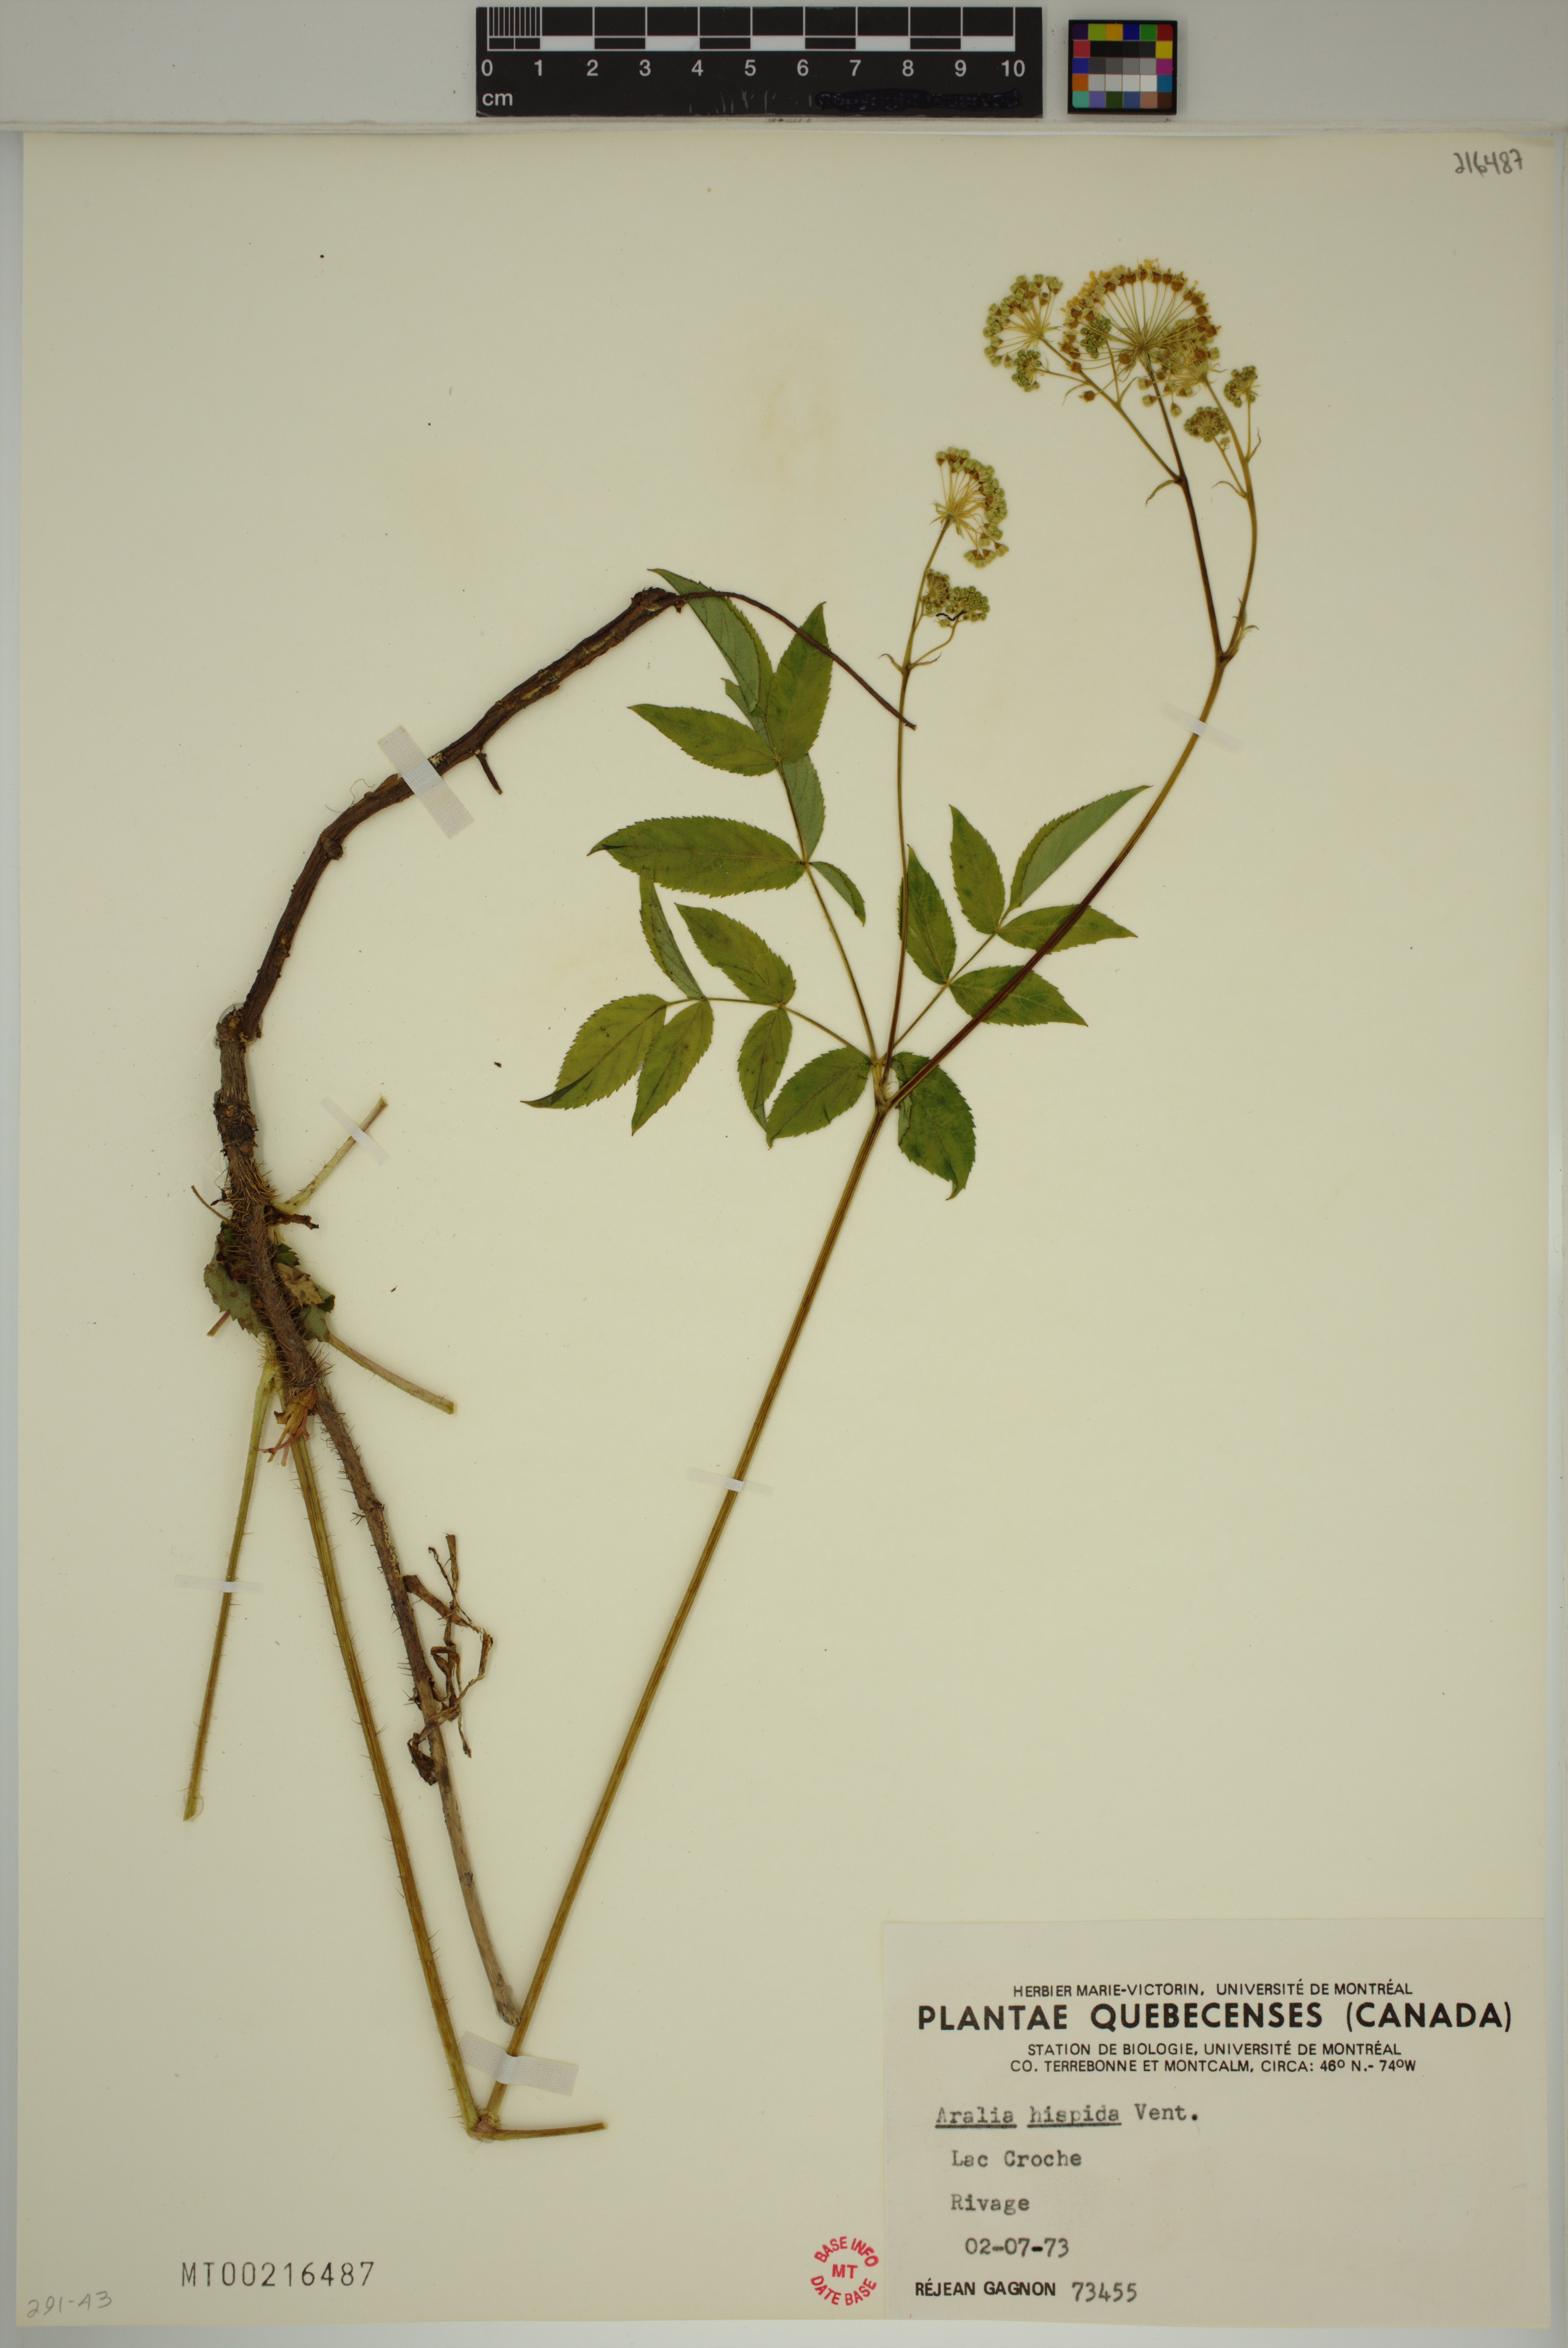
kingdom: Plantae
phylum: Tracheophyta
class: Magnoliopsida
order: Apiales
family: Araliaceae
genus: Aralia
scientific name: Aralia hispida
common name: Bristly sarsaparilla
